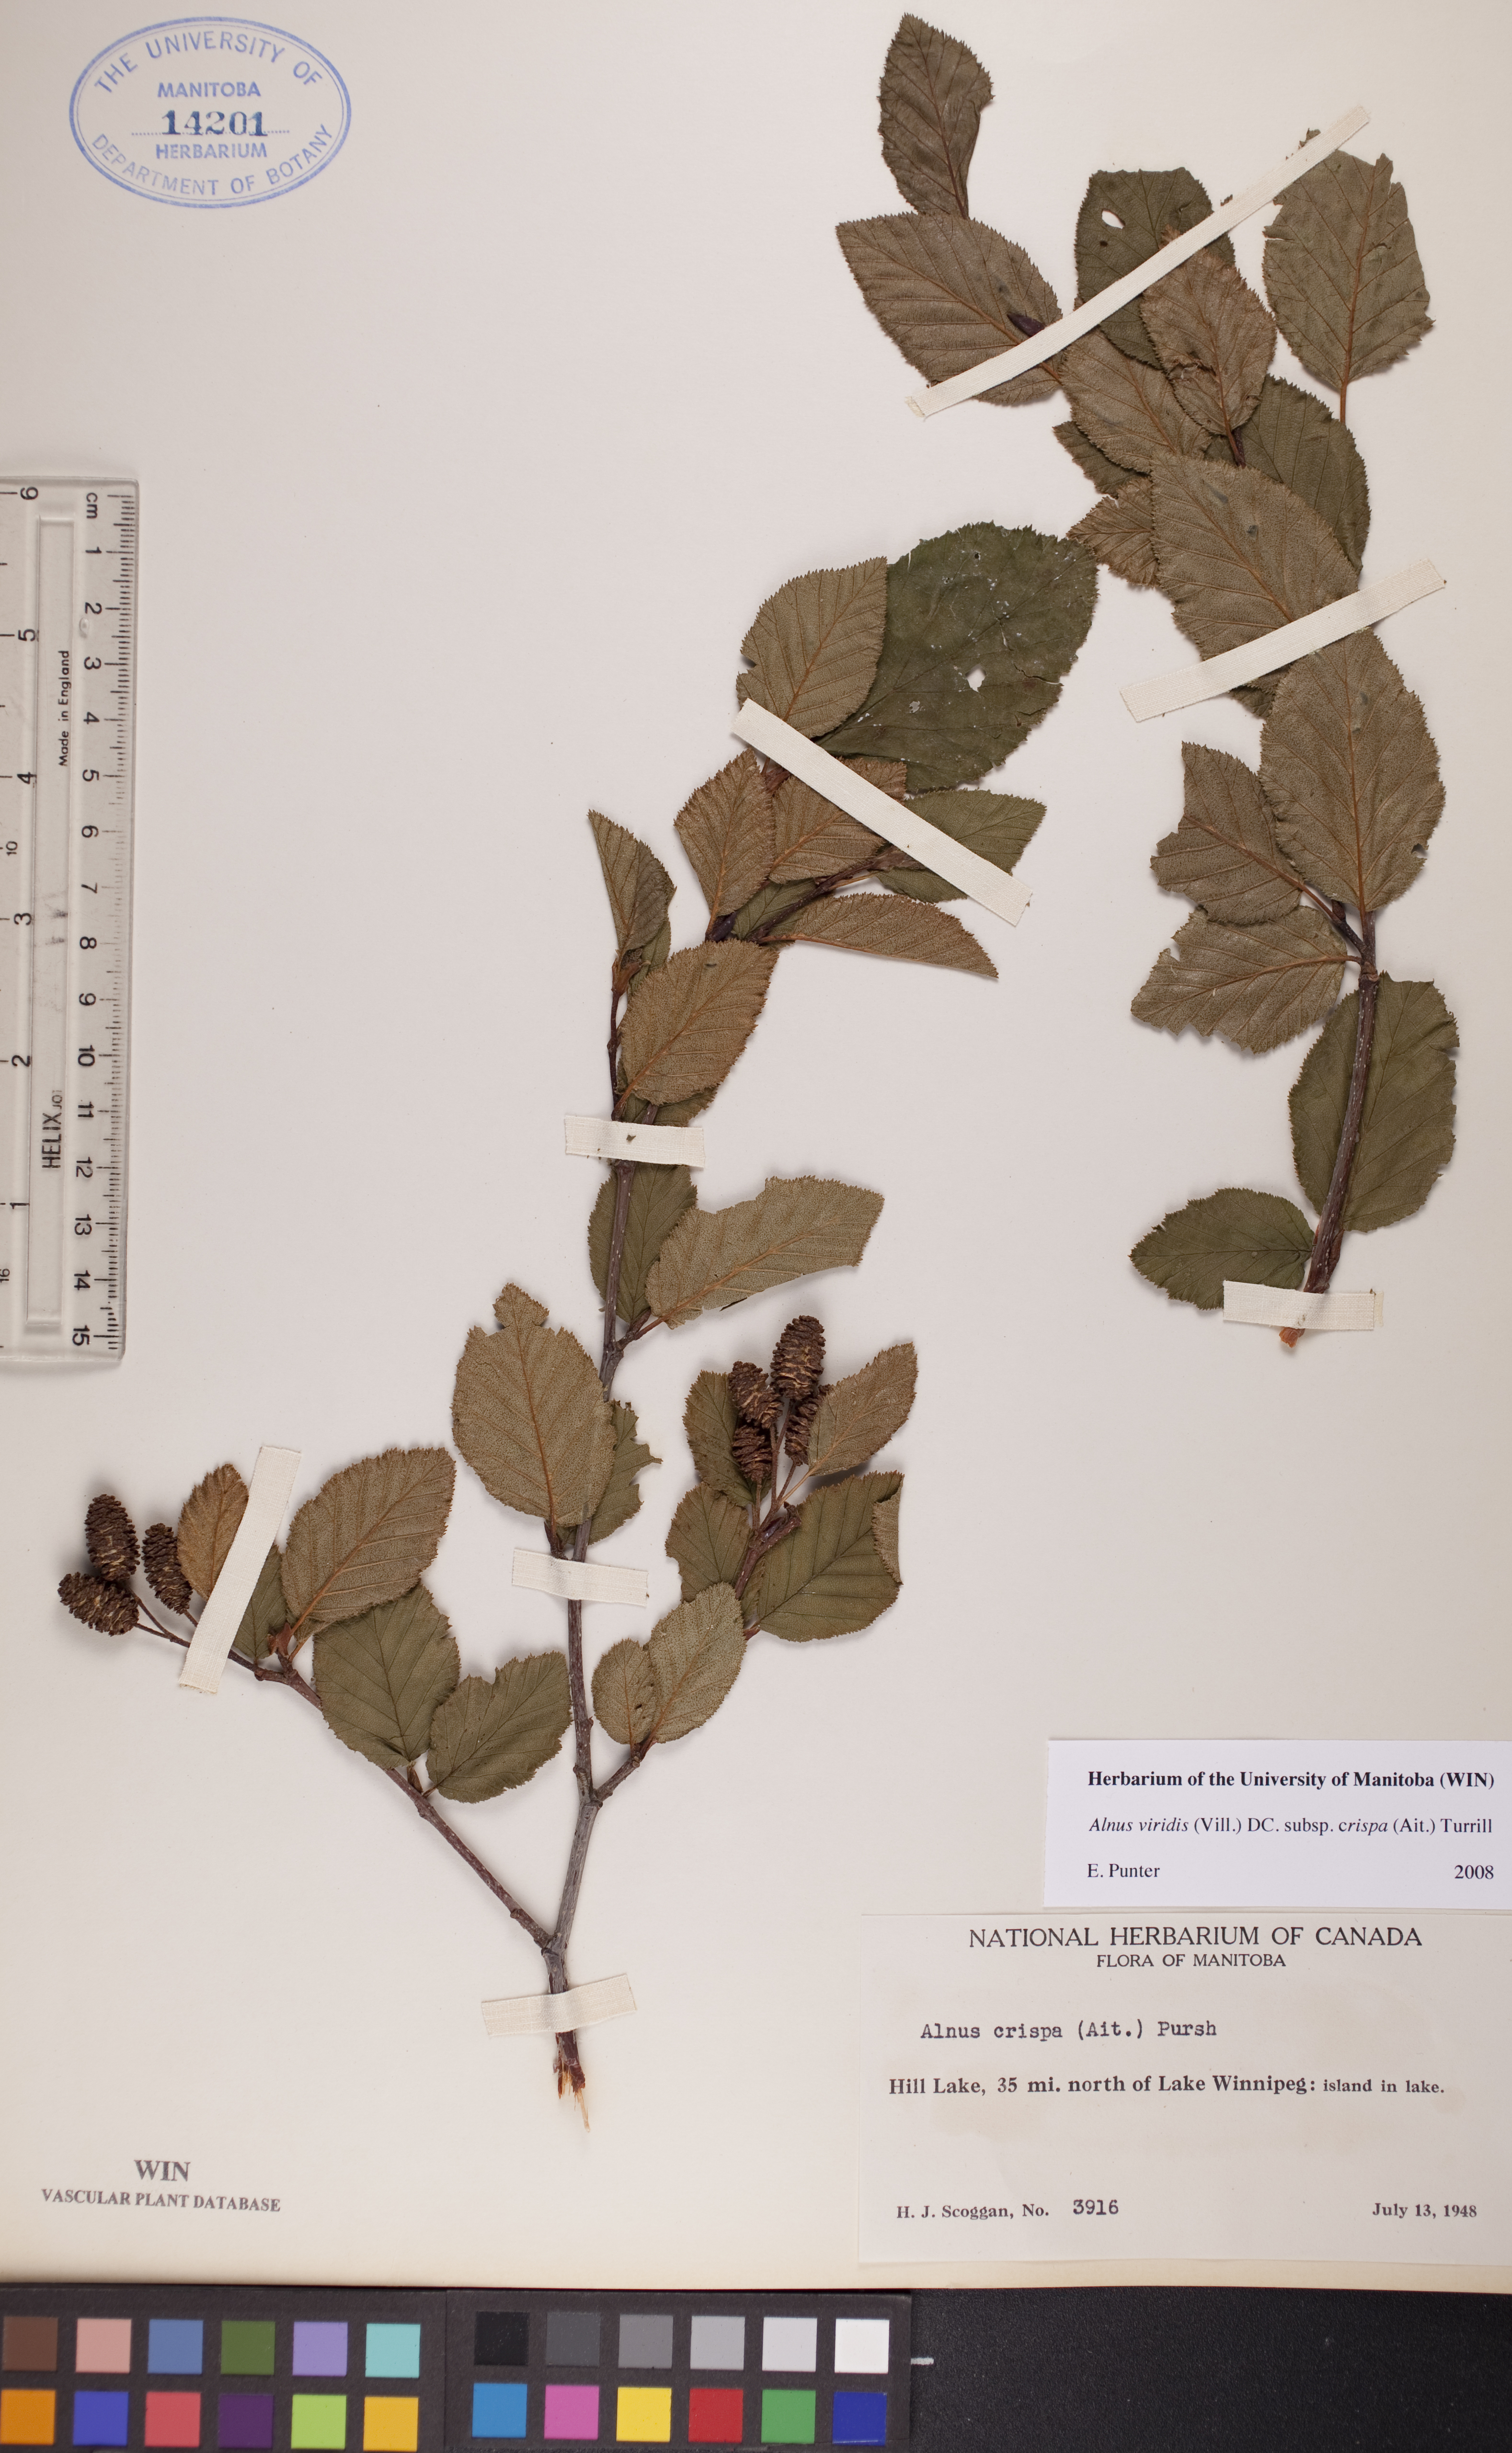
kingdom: Plantae
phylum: Tracheophyta
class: Magnoliopsida
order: Fagales
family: Betulaceae
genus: Alnus
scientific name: Alnus alnobetula
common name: Green alder
